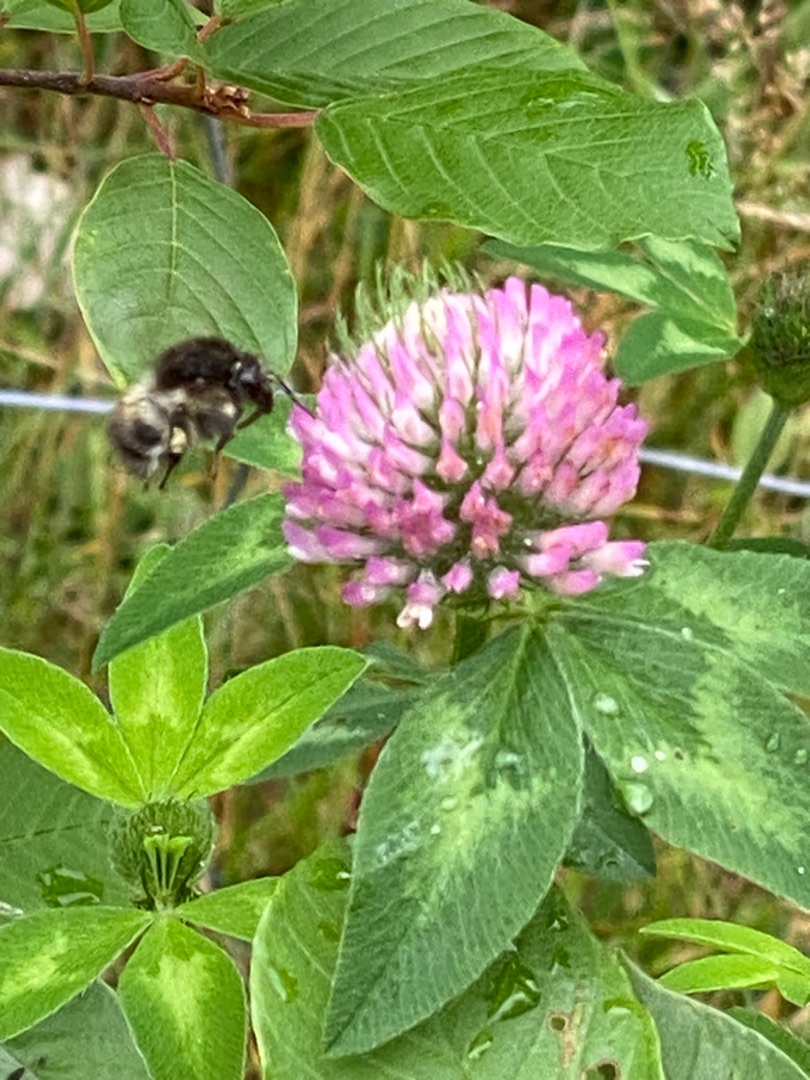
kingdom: Plantae
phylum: Tracheophyta
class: Magnoliopsida
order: Fabales
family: Fabaceae
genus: Trifolium
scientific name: Trifolium pratense
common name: Rød-kløver
